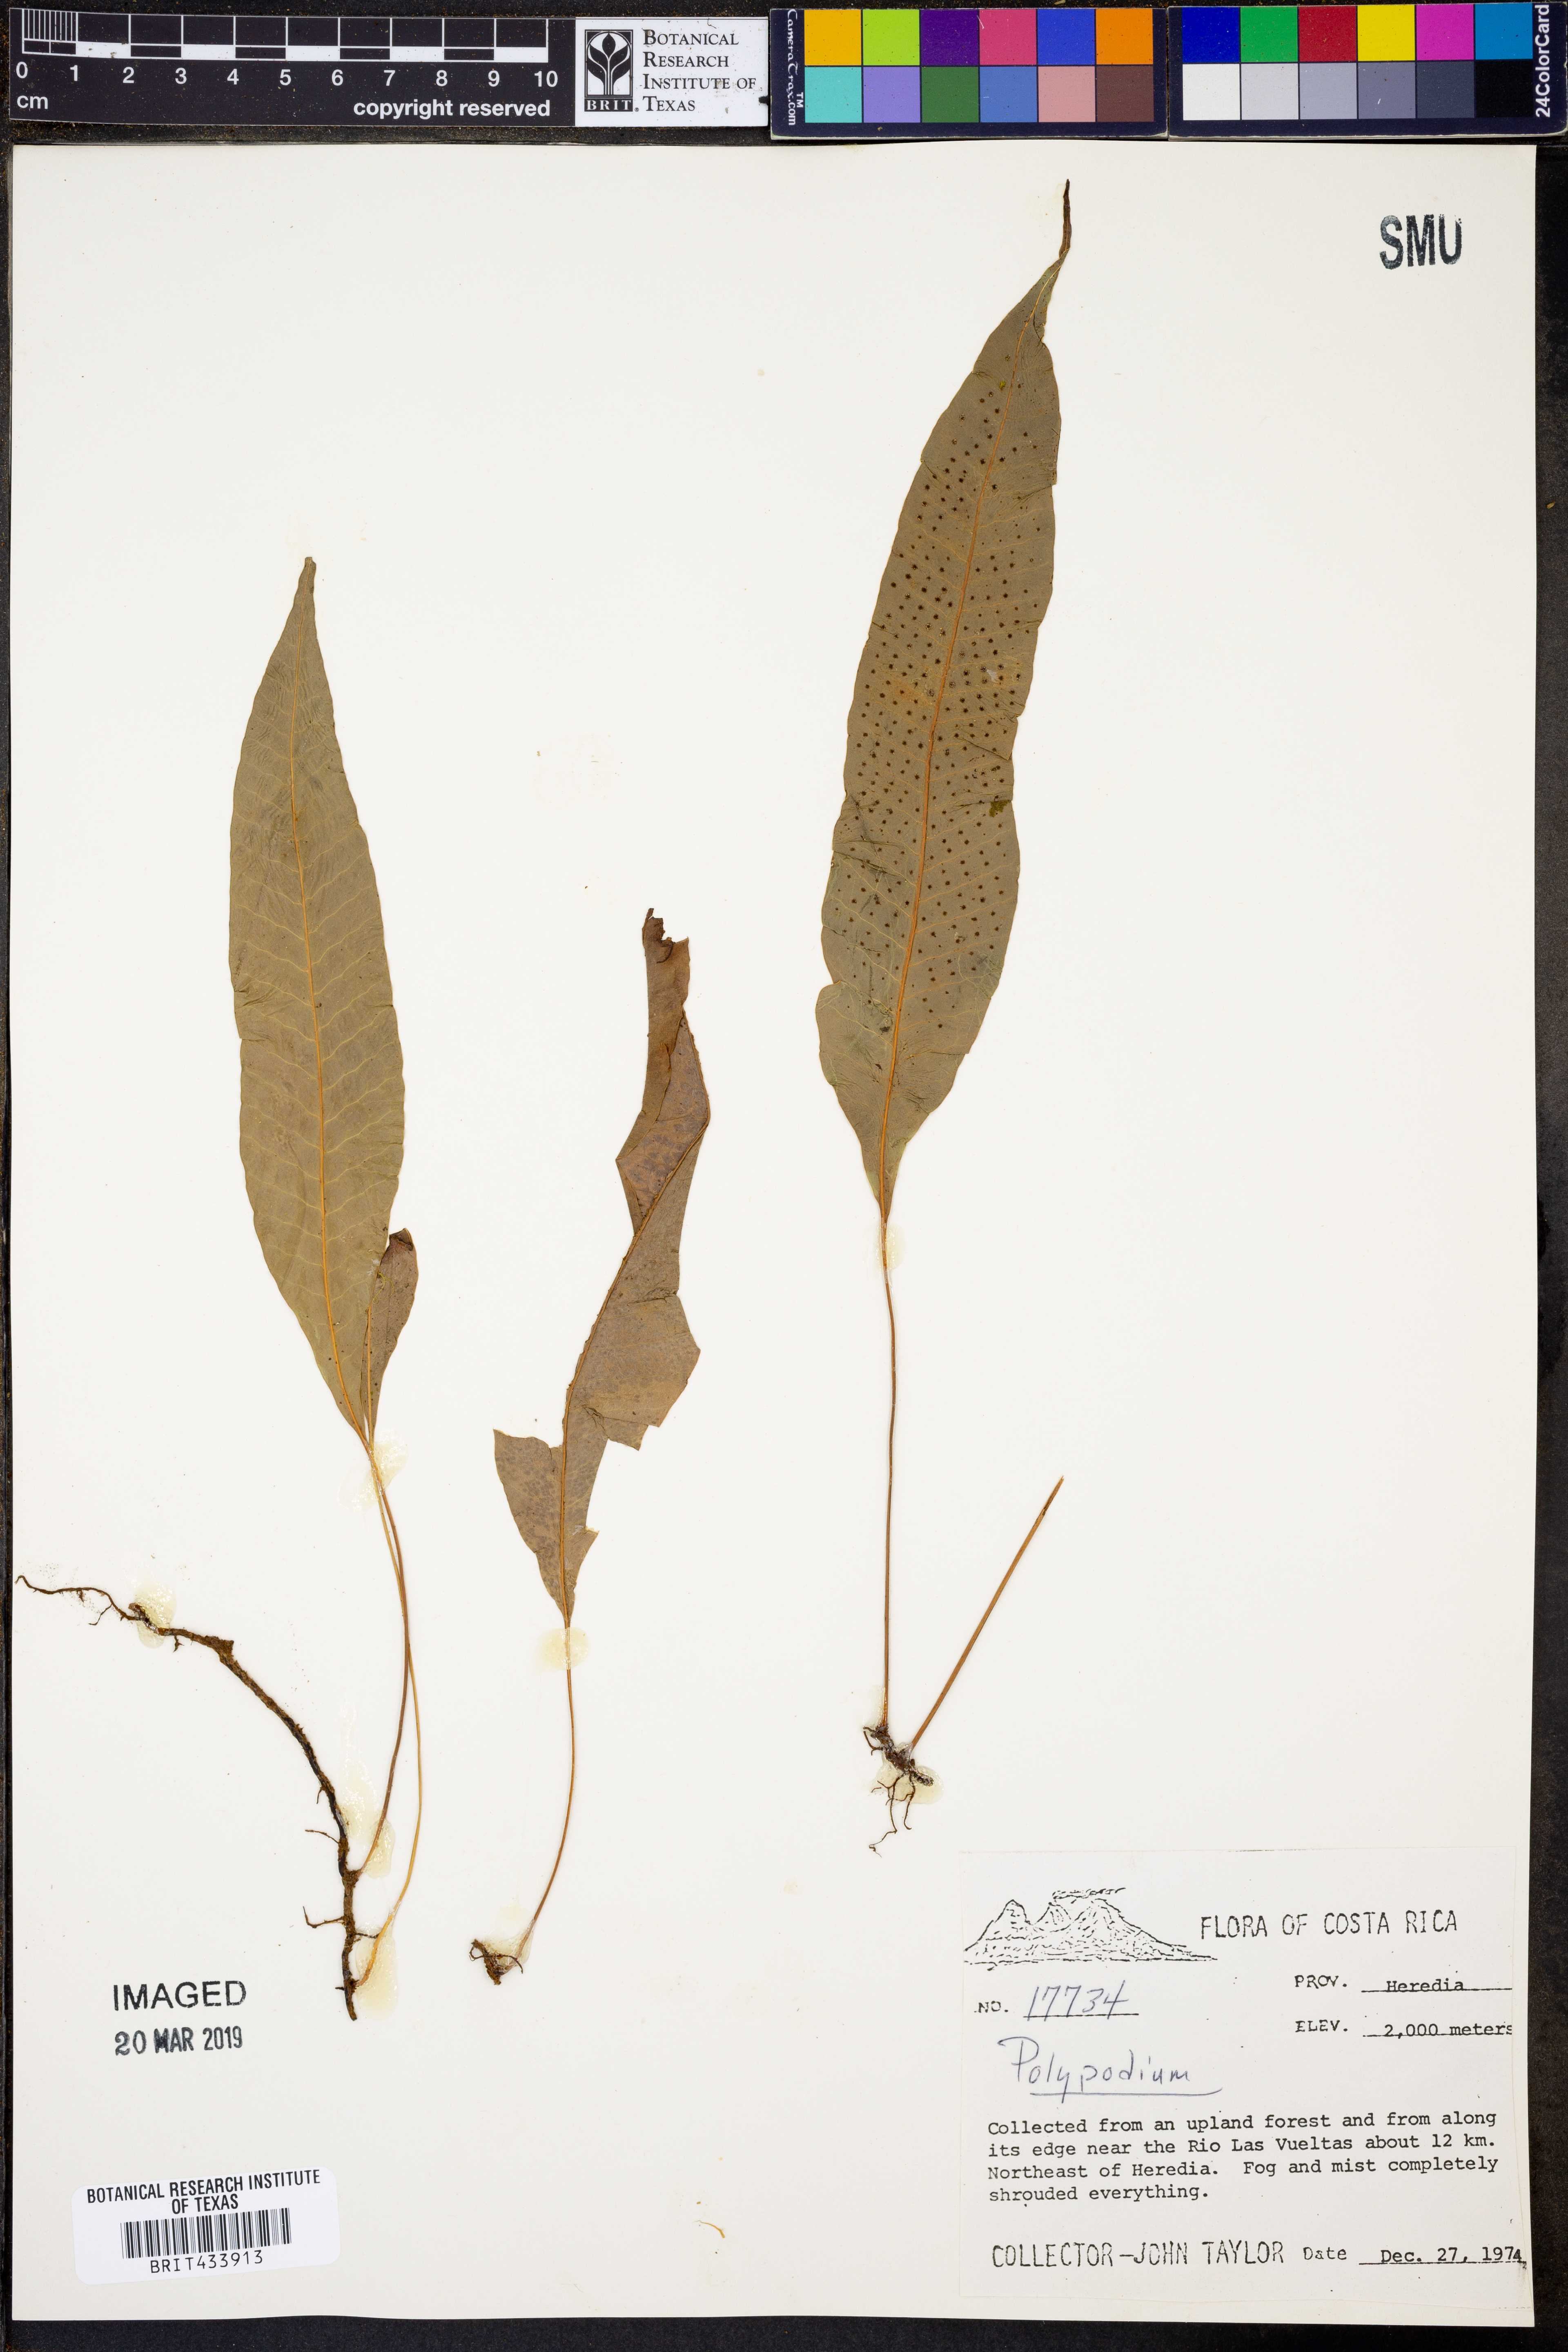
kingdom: Plantae
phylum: Tracheophyta
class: Polypodiopsida
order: Polypodiales
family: Polypodiaceae
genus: Polypodium
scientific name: Polypodium
